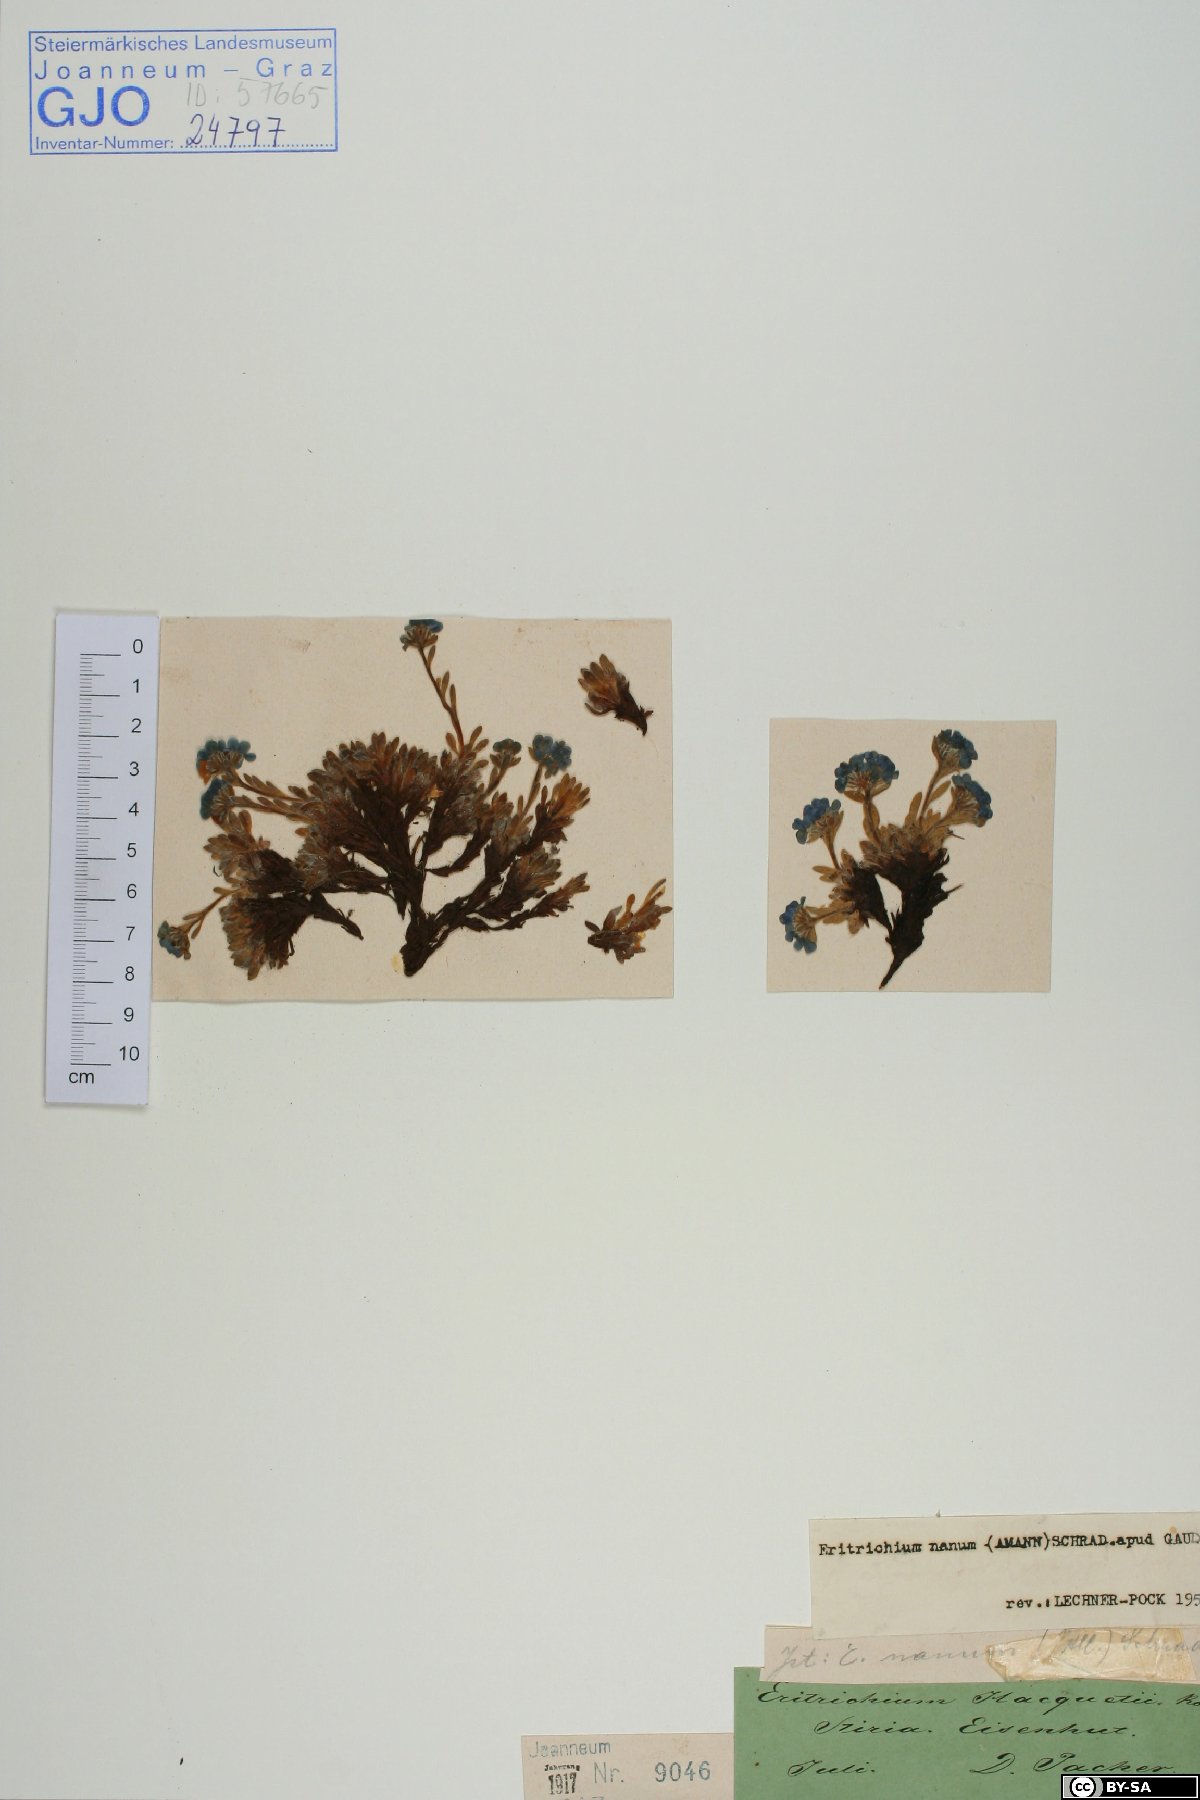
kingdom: Plantae
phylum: Tracheophyta
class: Magnoliopsida
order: Boraginales
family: Boraginaceae
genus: Eritrichium
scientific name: Eritrichium nanum
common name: King-of-the-alps
